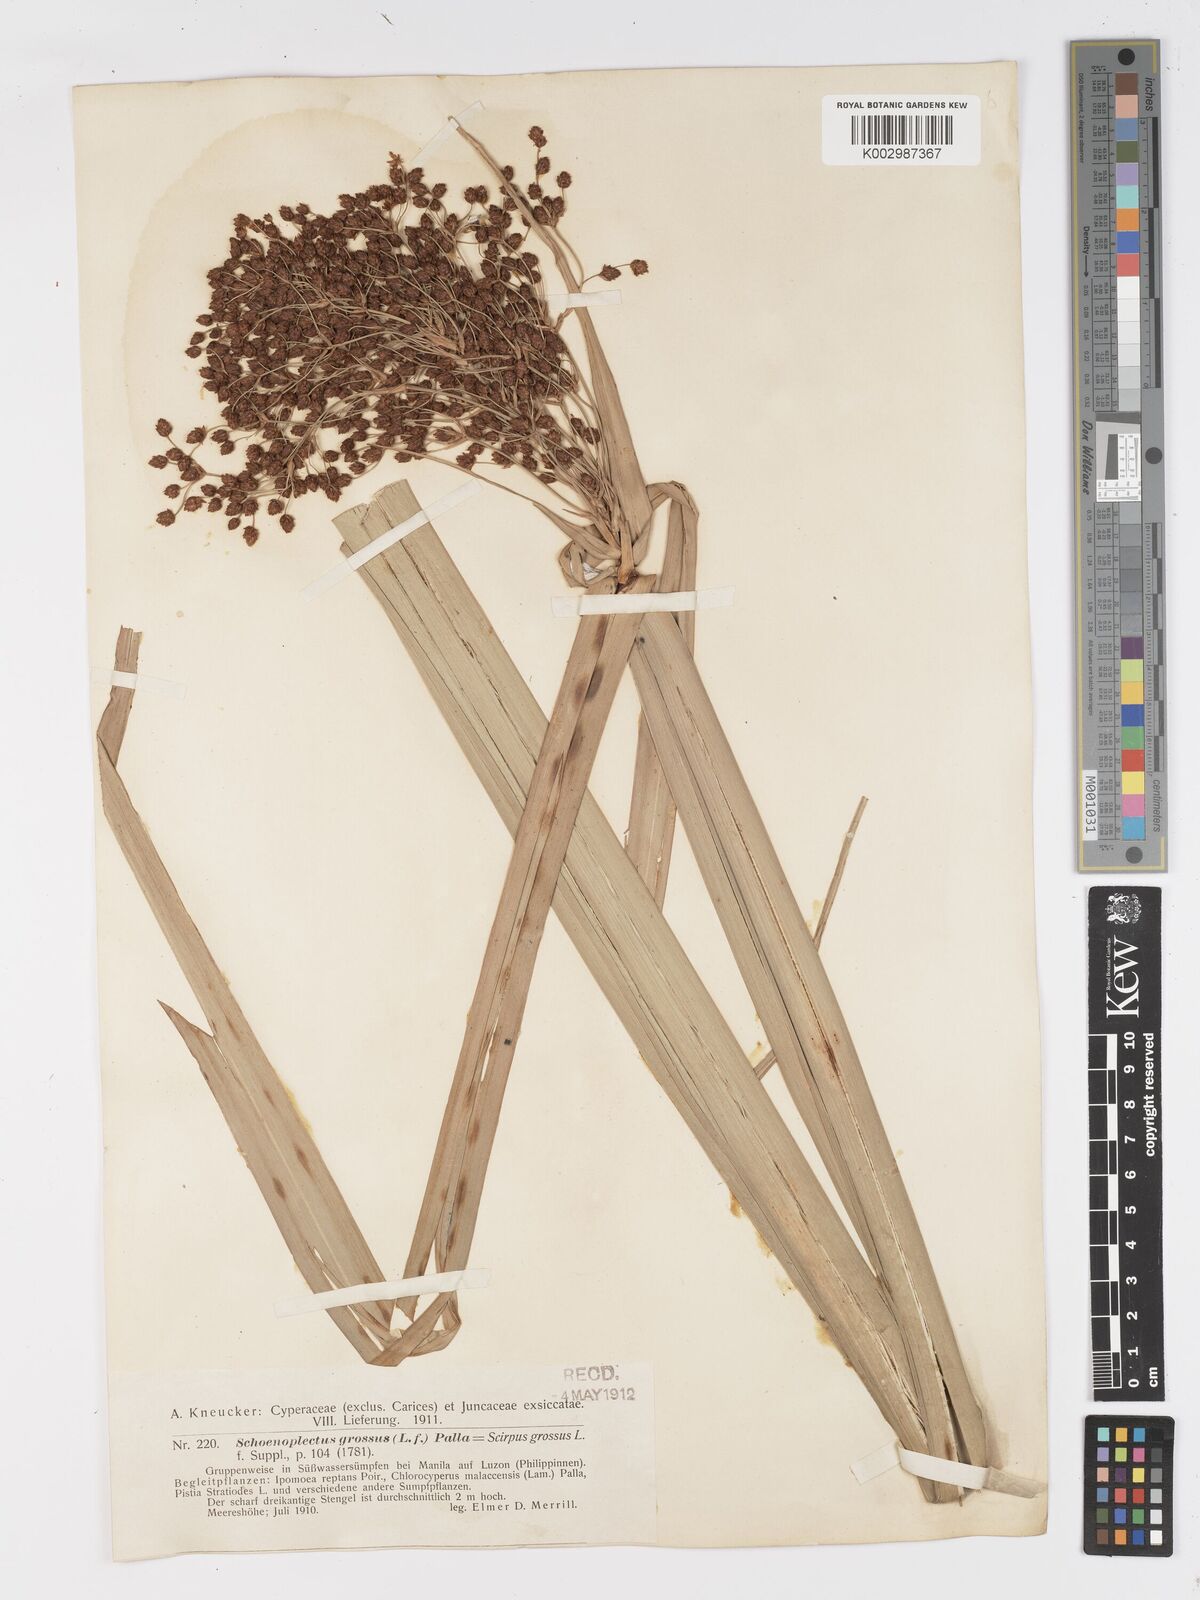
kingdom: Plantae
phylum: Tracheophyta
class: Liliopsida
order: Poales
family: Cyperaceae
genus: Actinoscirpus
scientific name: Actinoscirpus grossus
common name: Giant bur rush
